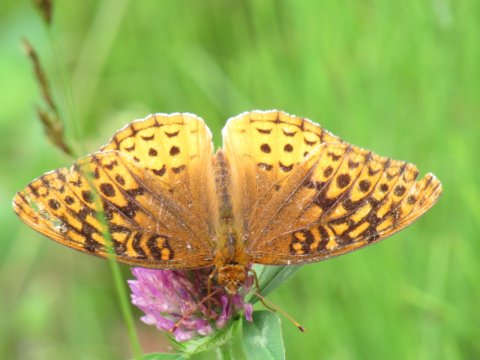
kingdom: Animalia
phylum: Arthropoda
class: Insecta
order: Lepidoptera
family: Nymphalidae
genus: Speyeria
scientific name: Speyeria cybele
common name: Great Spangled Fritillary
